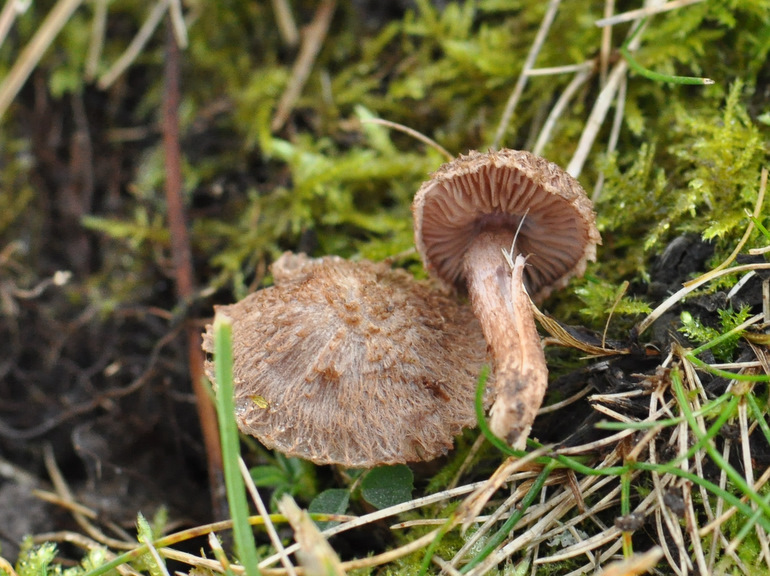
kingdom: Fungi
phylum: Basidiomycota
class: Agaricomycetes
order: Agaricales
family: Inocybaceae
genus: Inocybe
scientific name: Inocybe cincinnata
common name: lillabladet trævlhat
